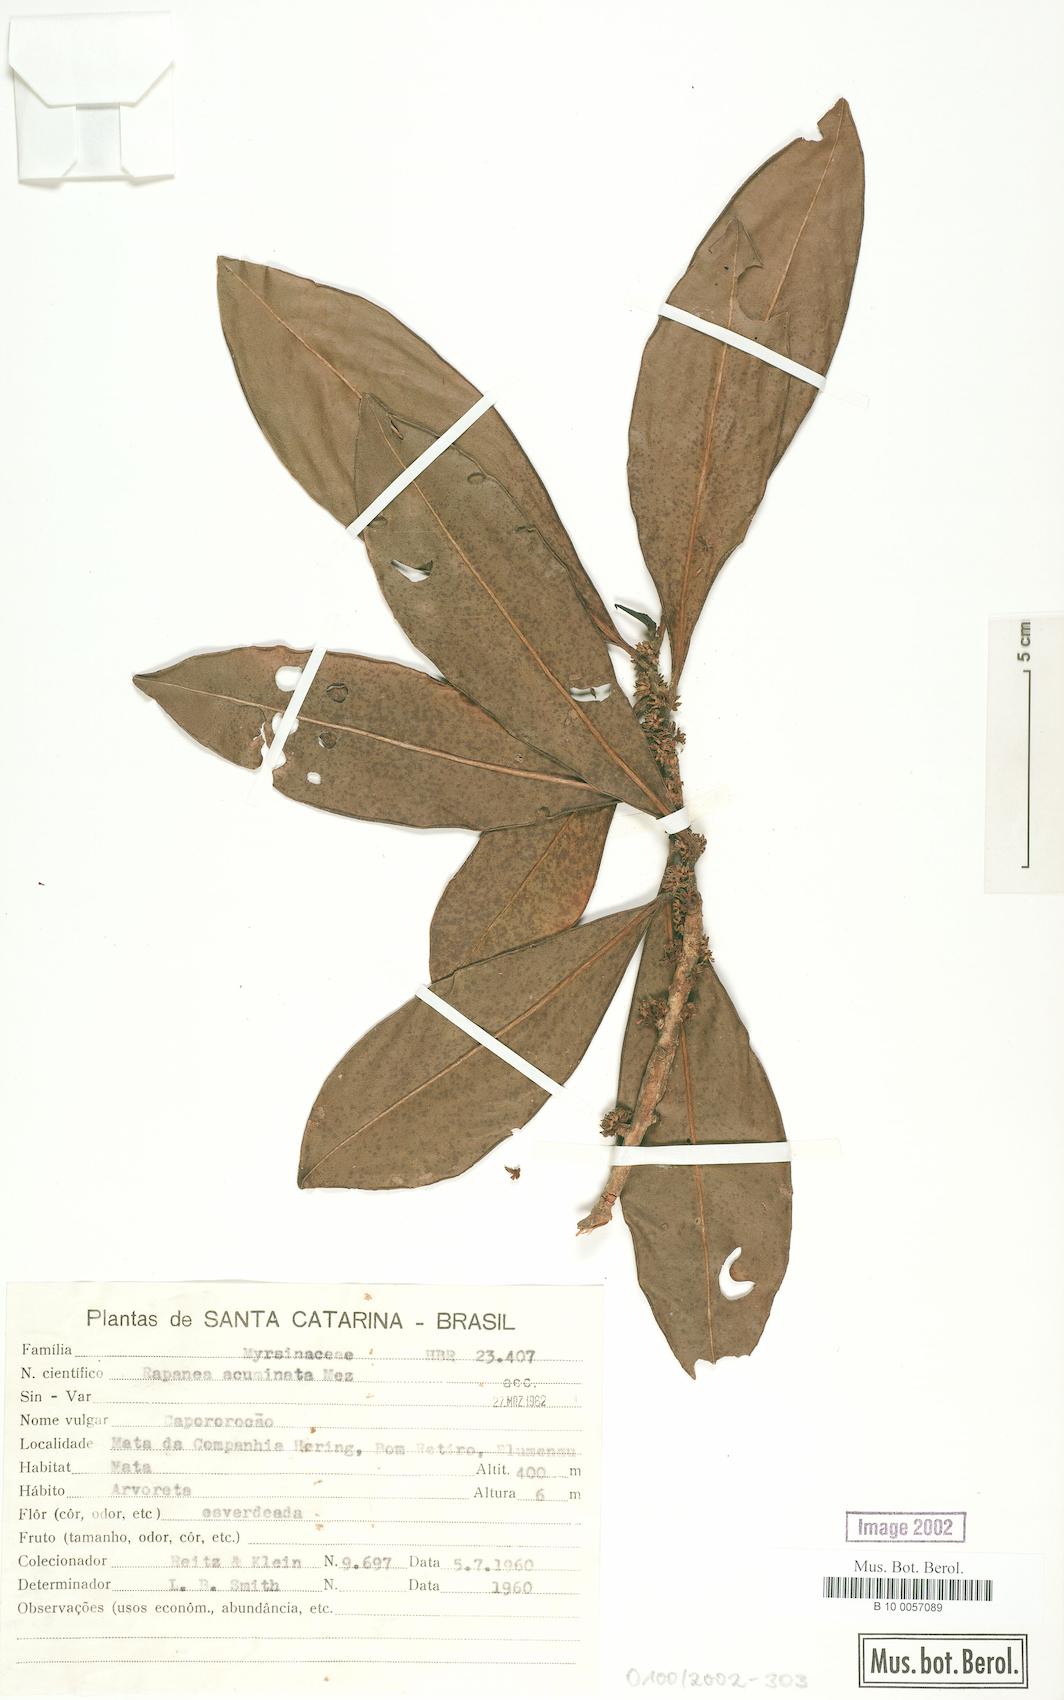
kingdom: Plantae
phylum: Tracheophyta
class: Magnoliopsida
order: Ericales
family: Primulaceae
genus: Myrsine
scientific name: Myrsine umbellata
